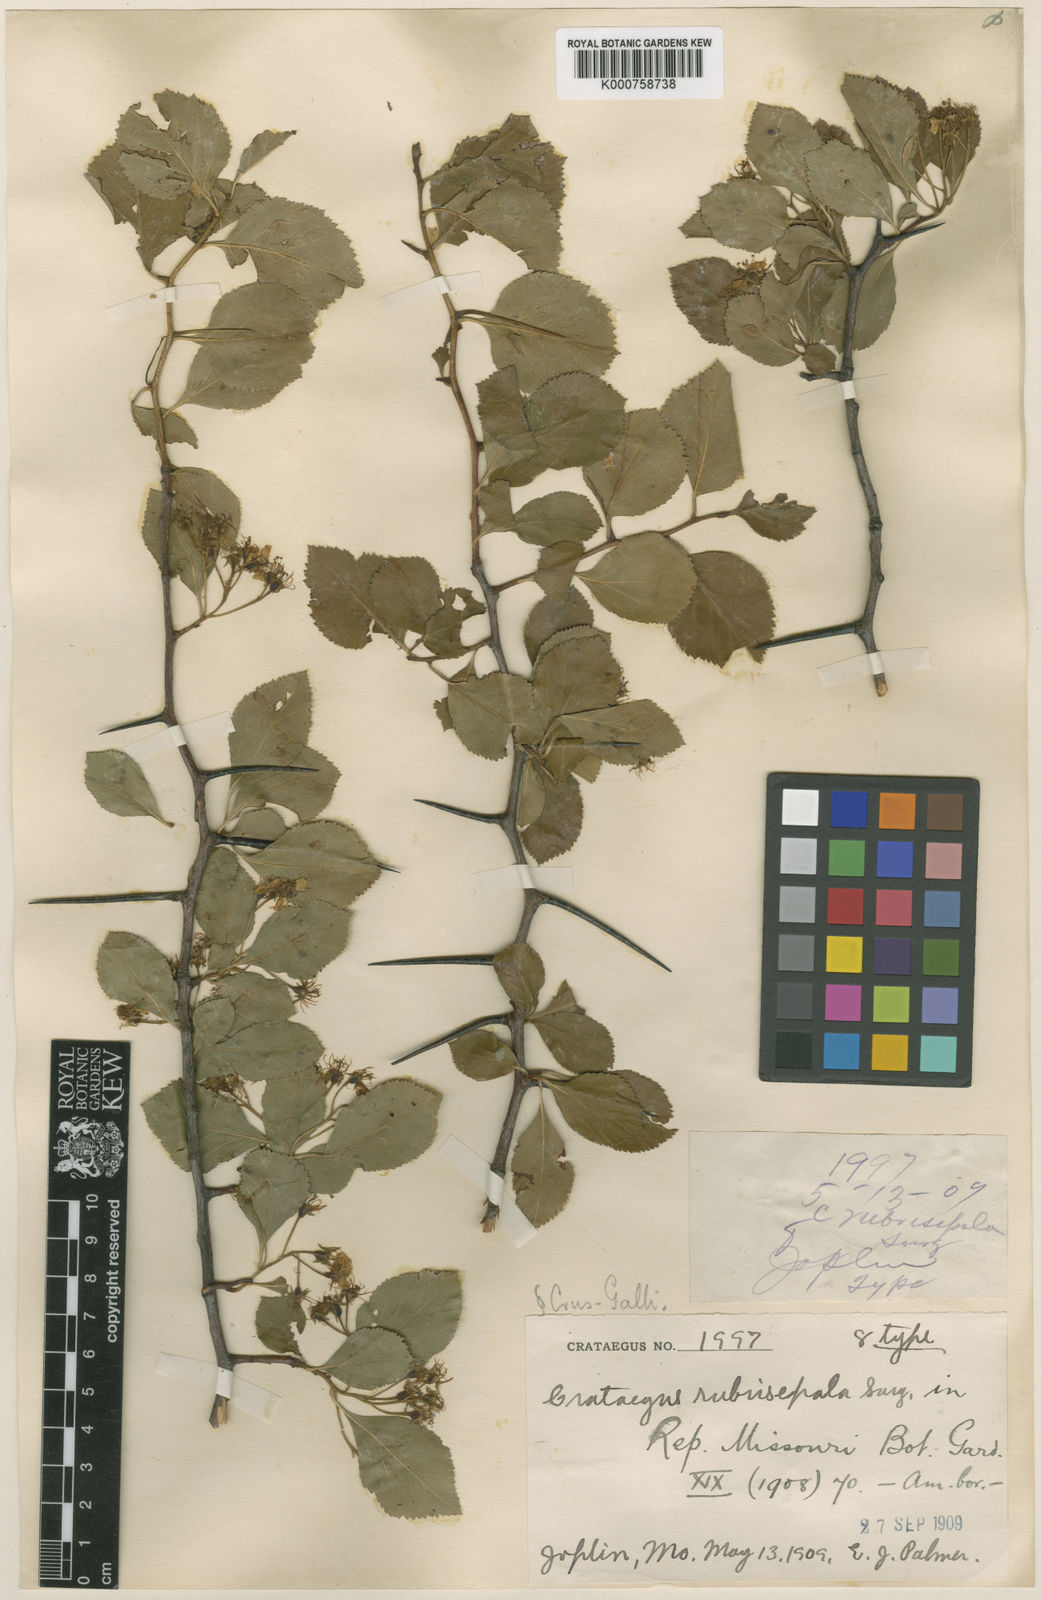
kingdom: Plantae
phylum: Tracheophyta
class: Magnoliopsida
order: Rosales
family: Rosaceae
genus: Crataegus
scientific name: Crataegus
